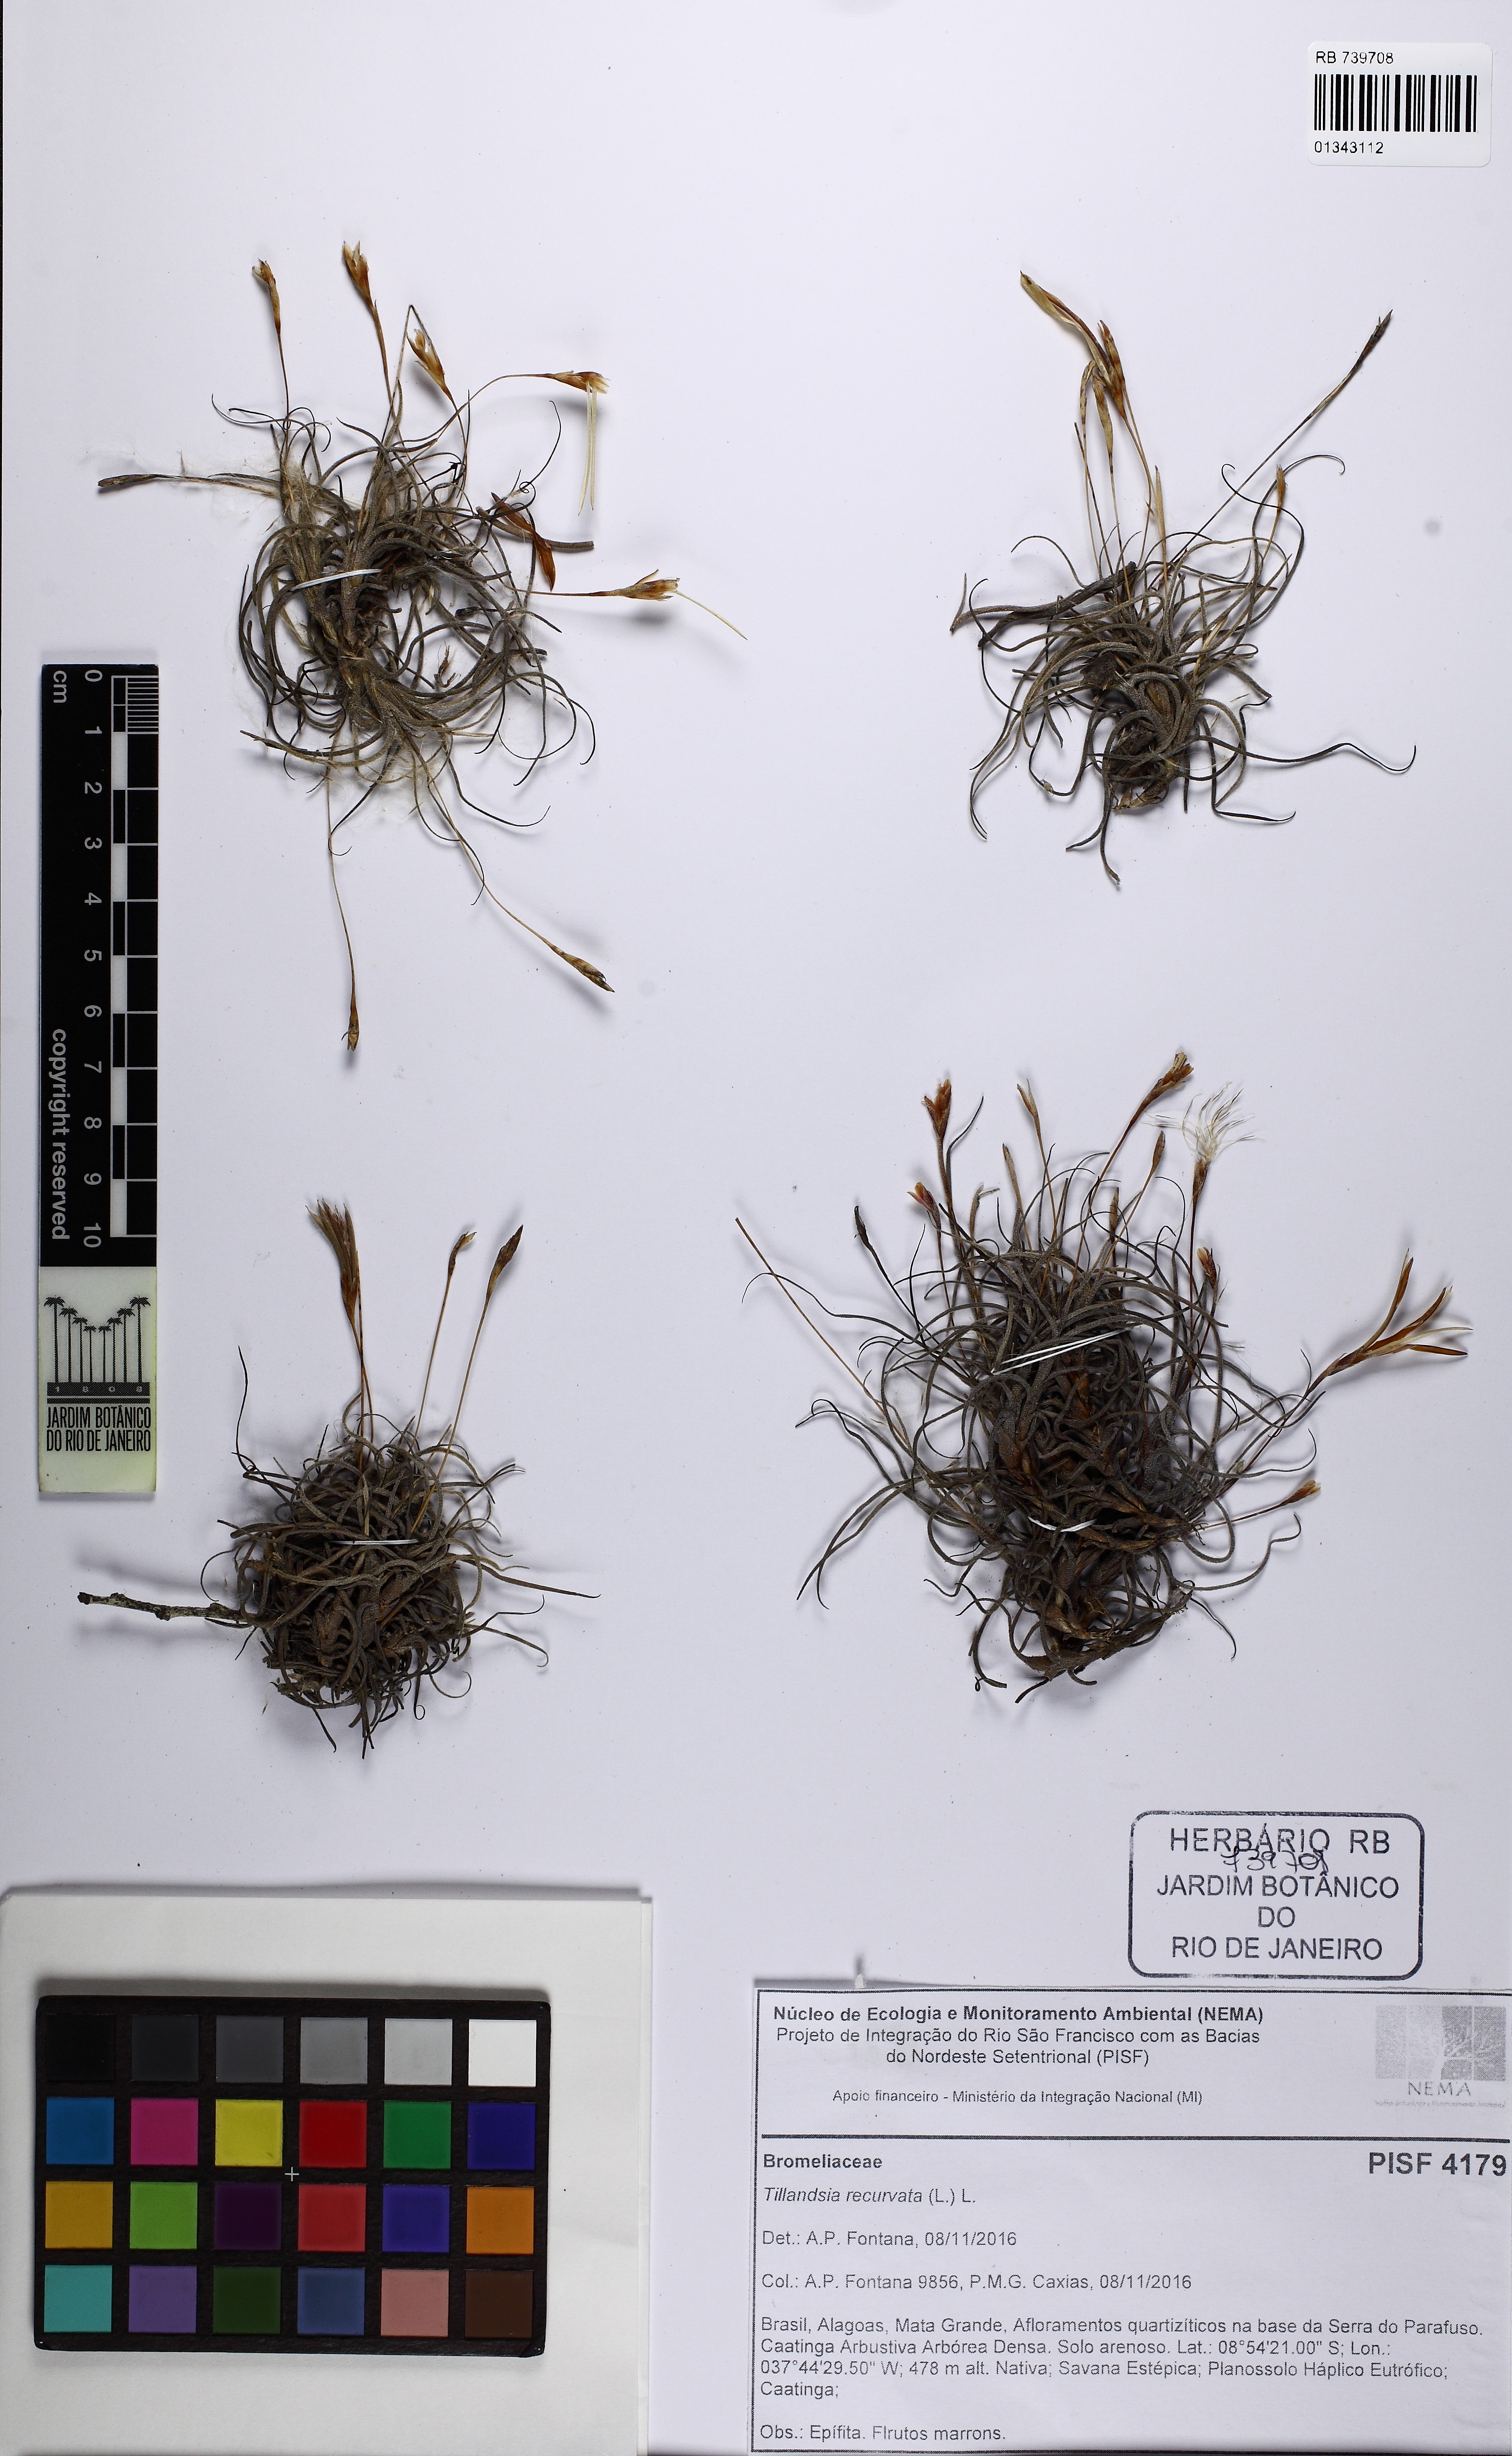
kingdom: Plantae
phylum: Tracheophyta
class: Liliopsida
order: Poales
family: Bromeliaceae
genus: Tillandsia
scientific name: Tillandsia recurvata
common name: Small ballmoss
